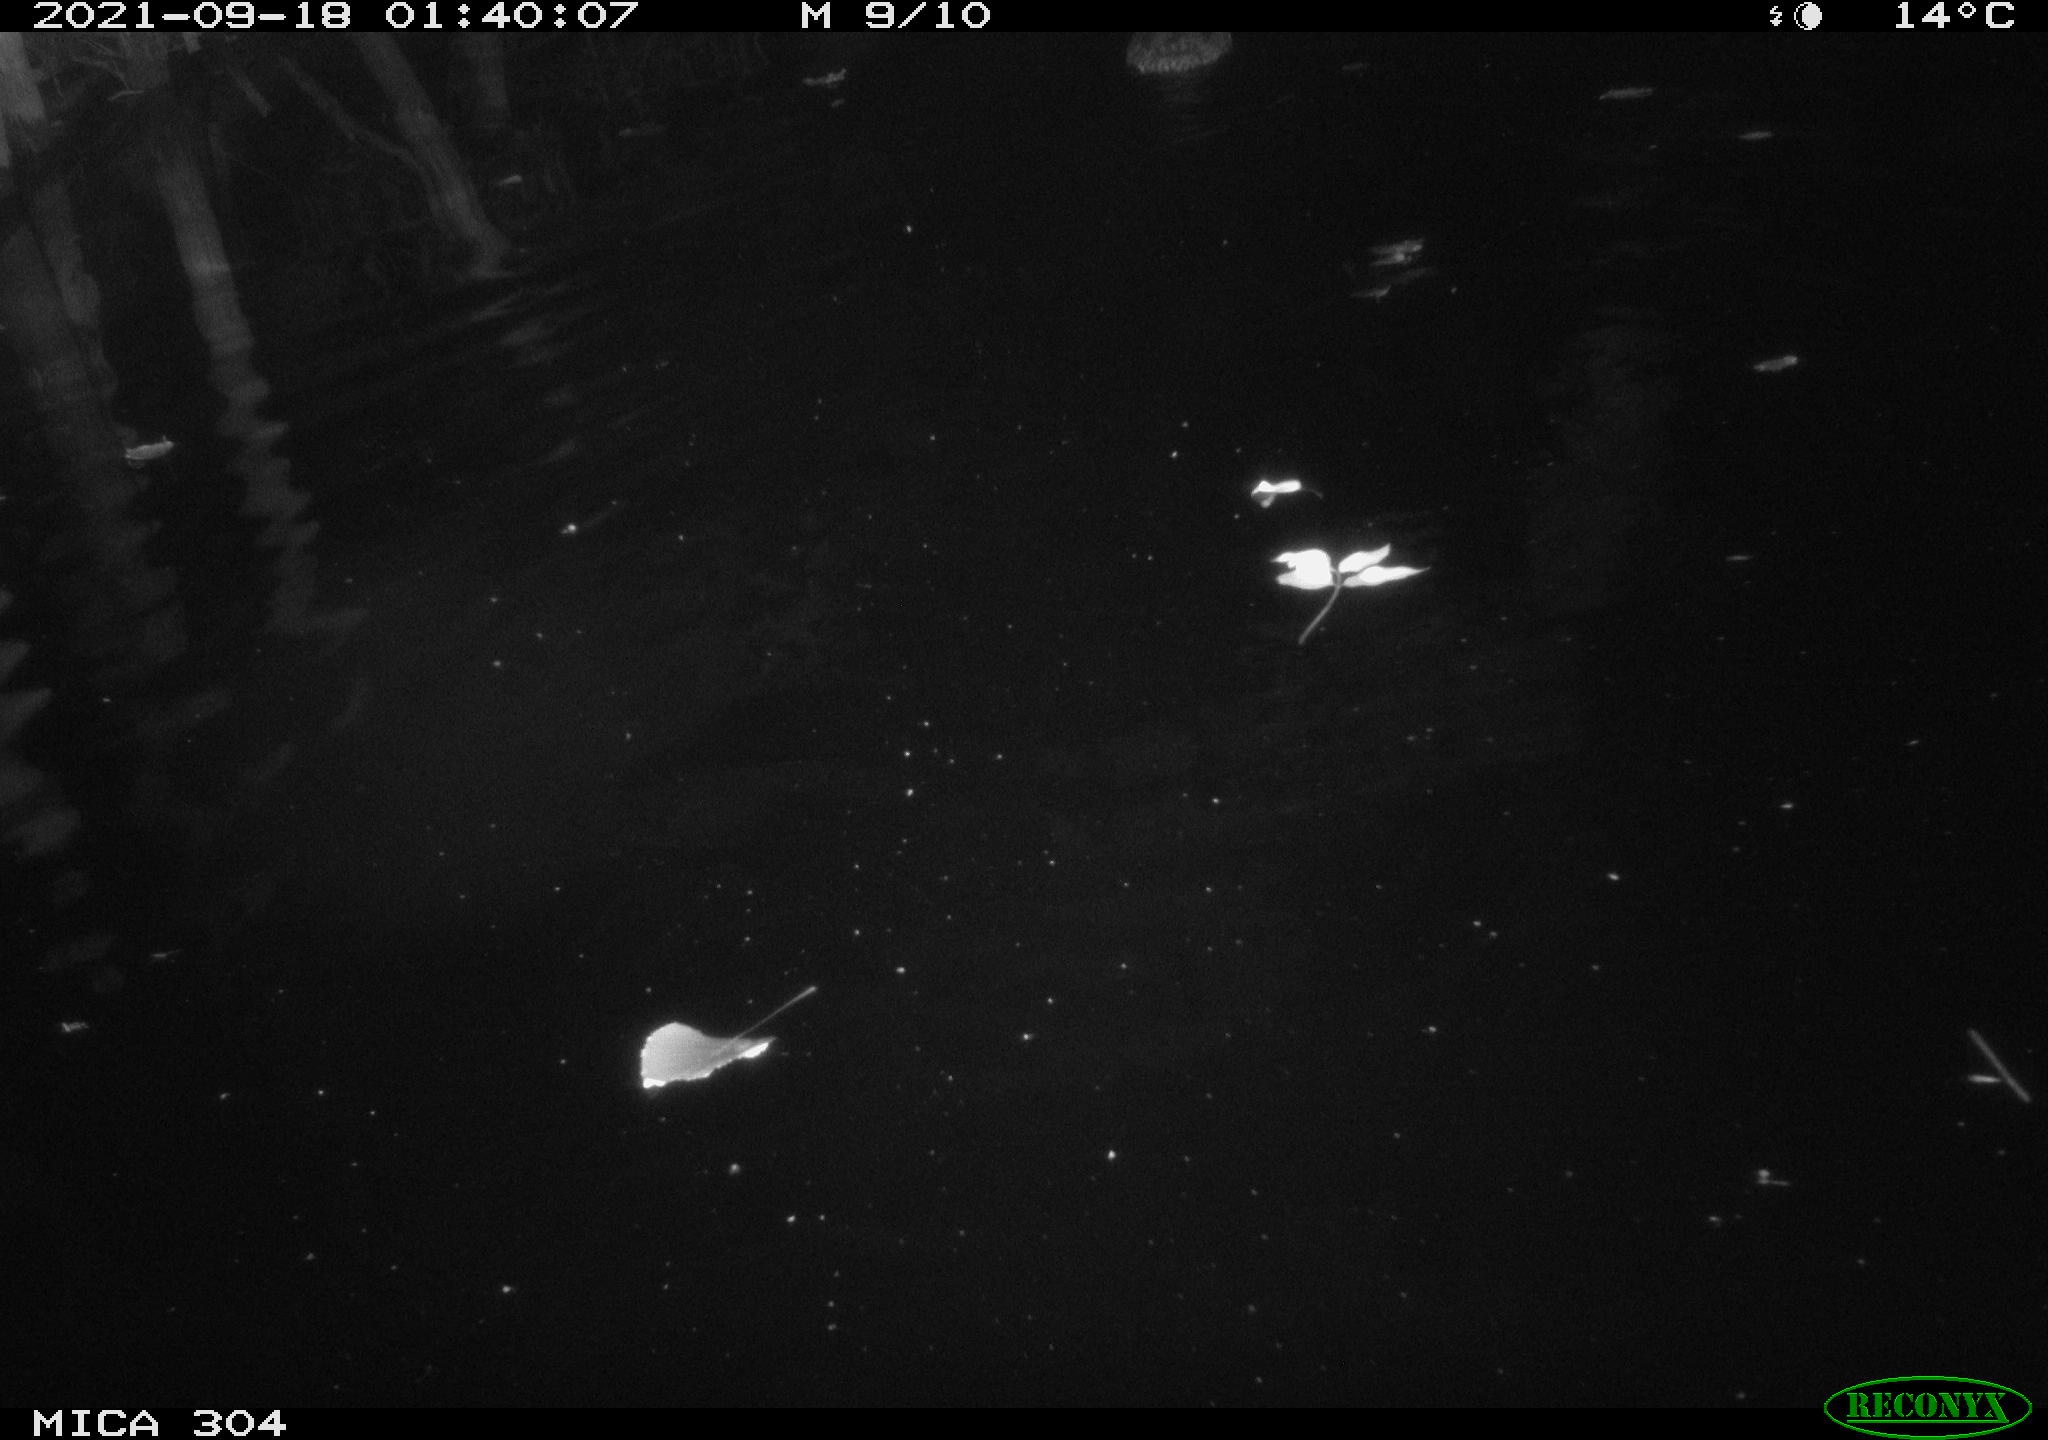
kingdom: Animalia
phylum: Chordata
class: Aves
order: Anseriformes
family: Anatidae
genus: Anas
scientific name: Anas platyrhynchos
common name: Mallard
